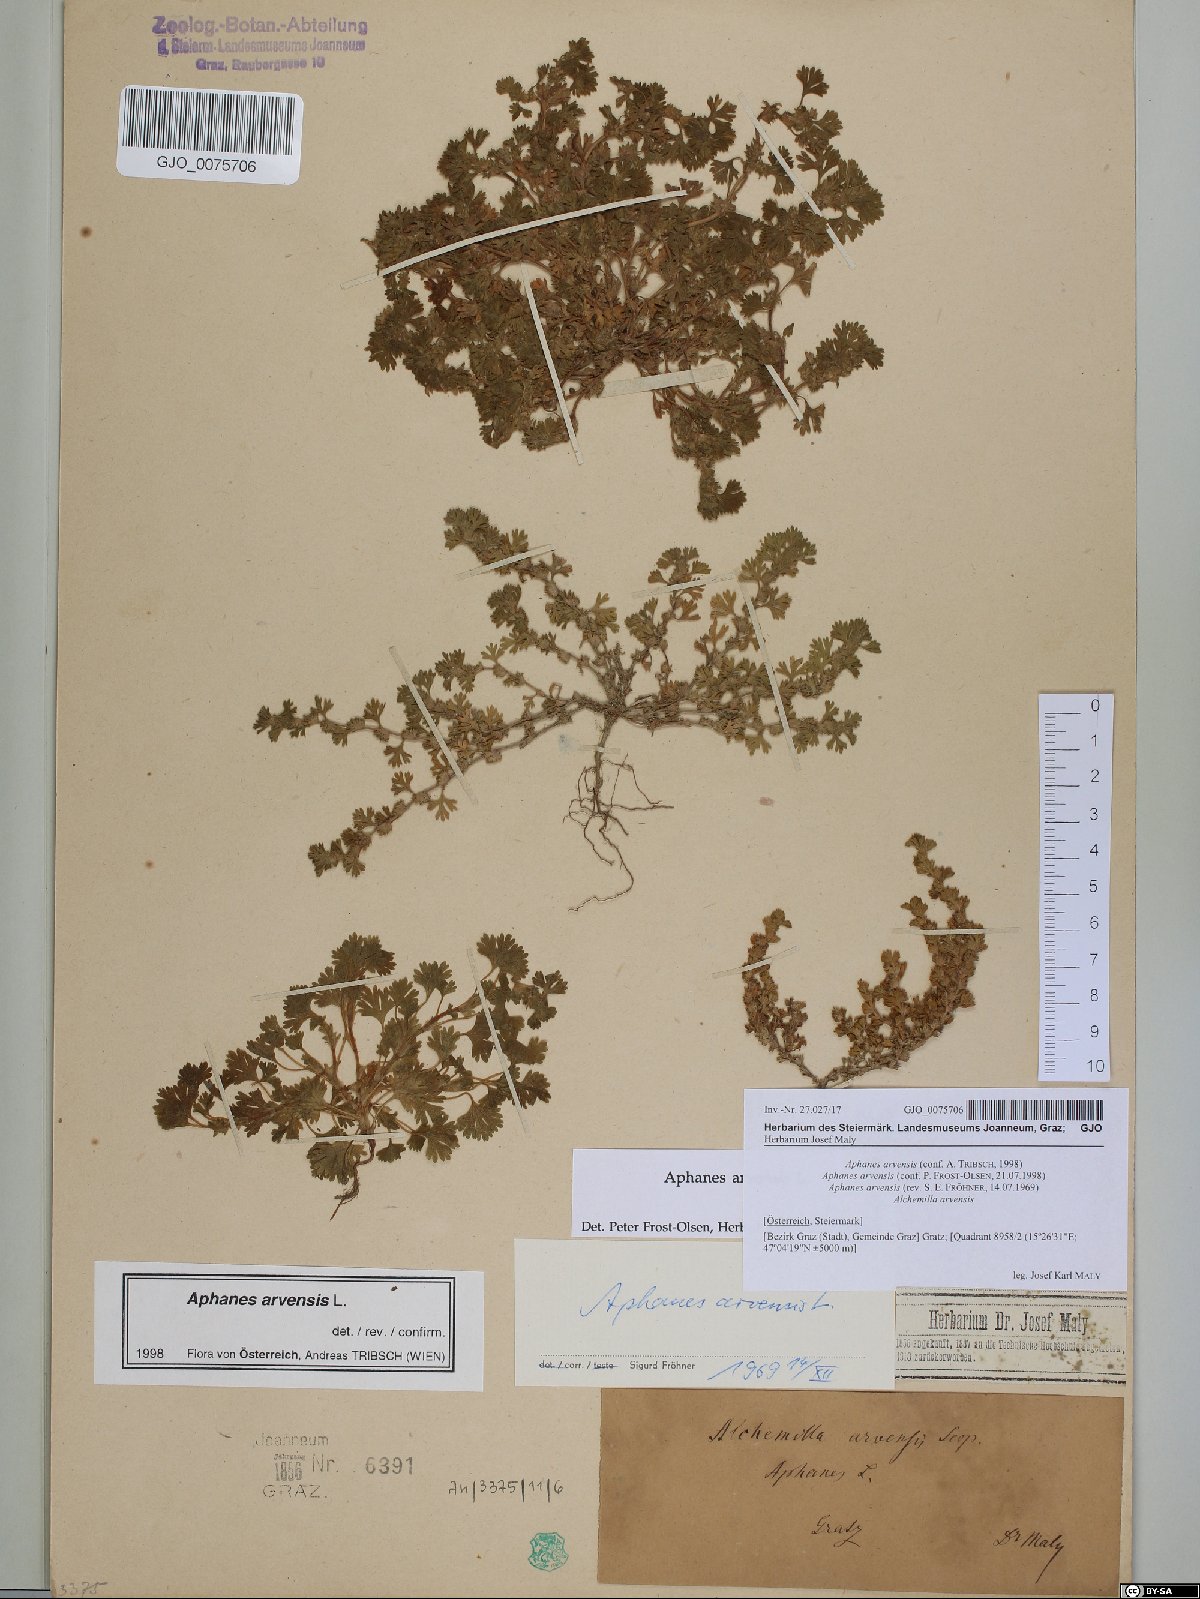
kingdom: Plantae
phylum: Tracheophyta
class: Magnoliopsida
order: Rosales
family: Rosaceae
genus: Aphanes
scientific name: Aphanes arvensis
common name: Parsley-piert
